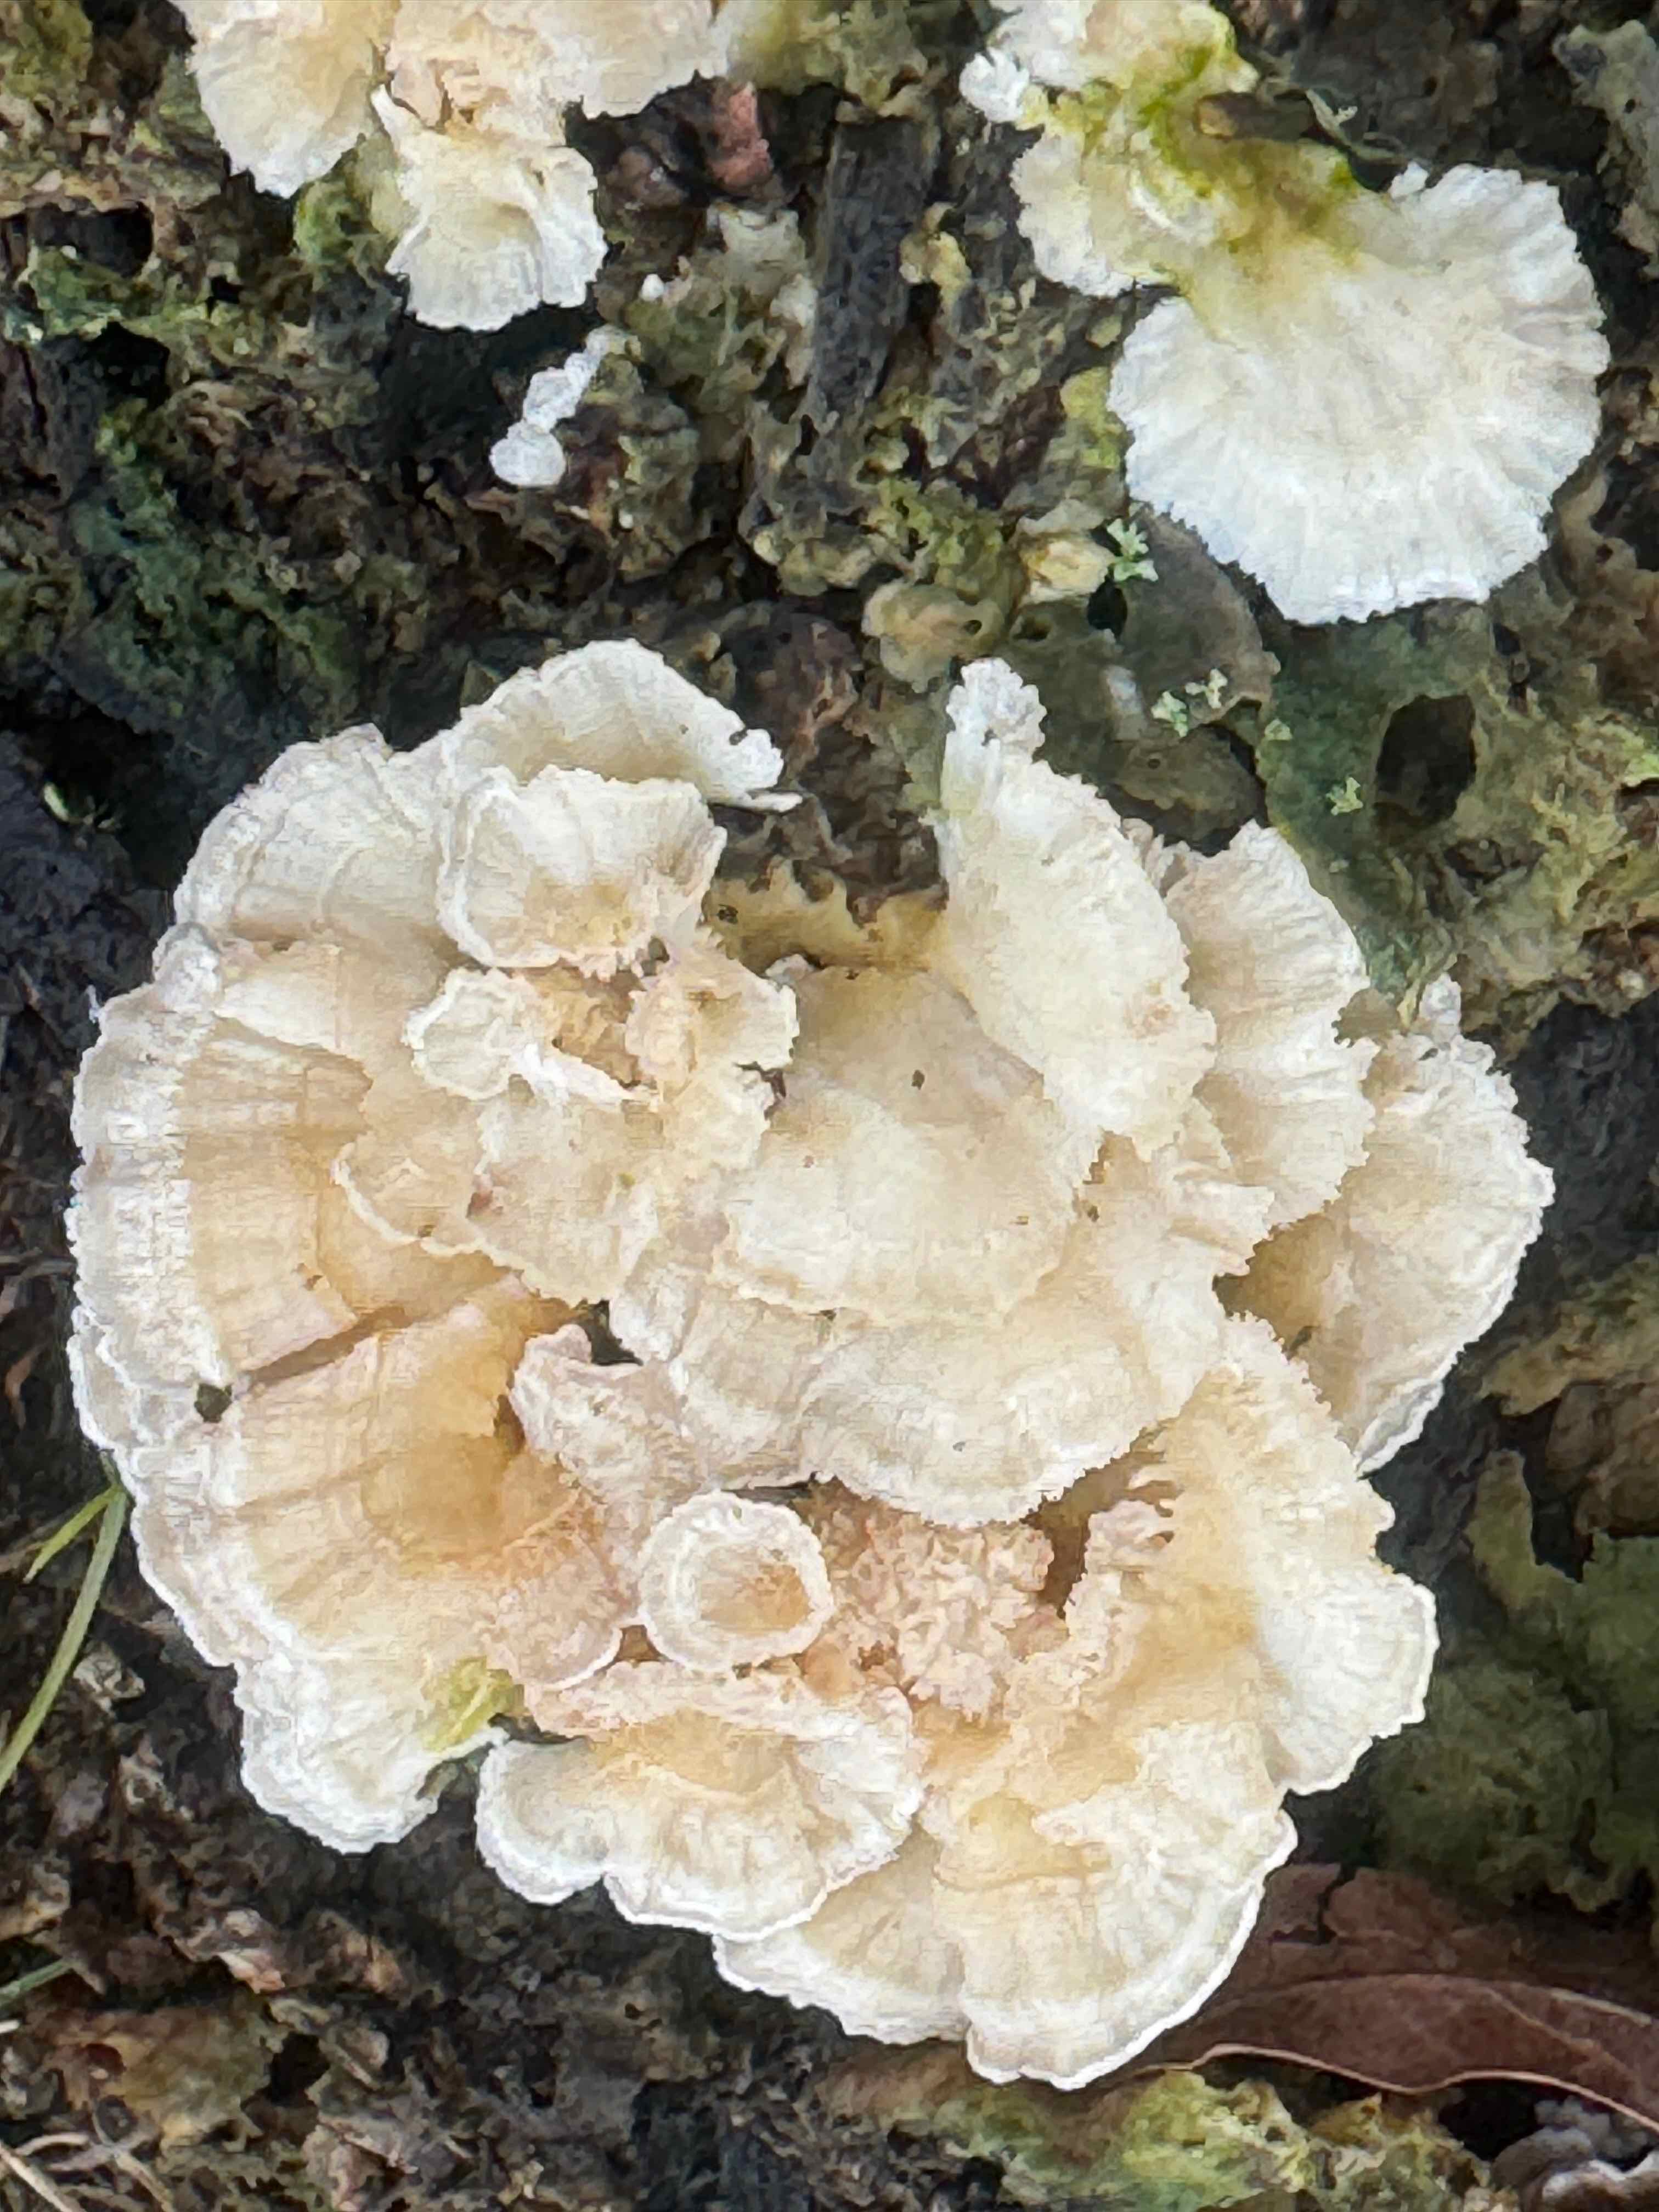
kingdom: Fungi
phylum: Basidiomycota
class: Agaricomycetes
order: Polyporales
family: Polyporaceae
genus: Trametes
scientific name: Trametes versicolor
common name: broget læderporesvamp
